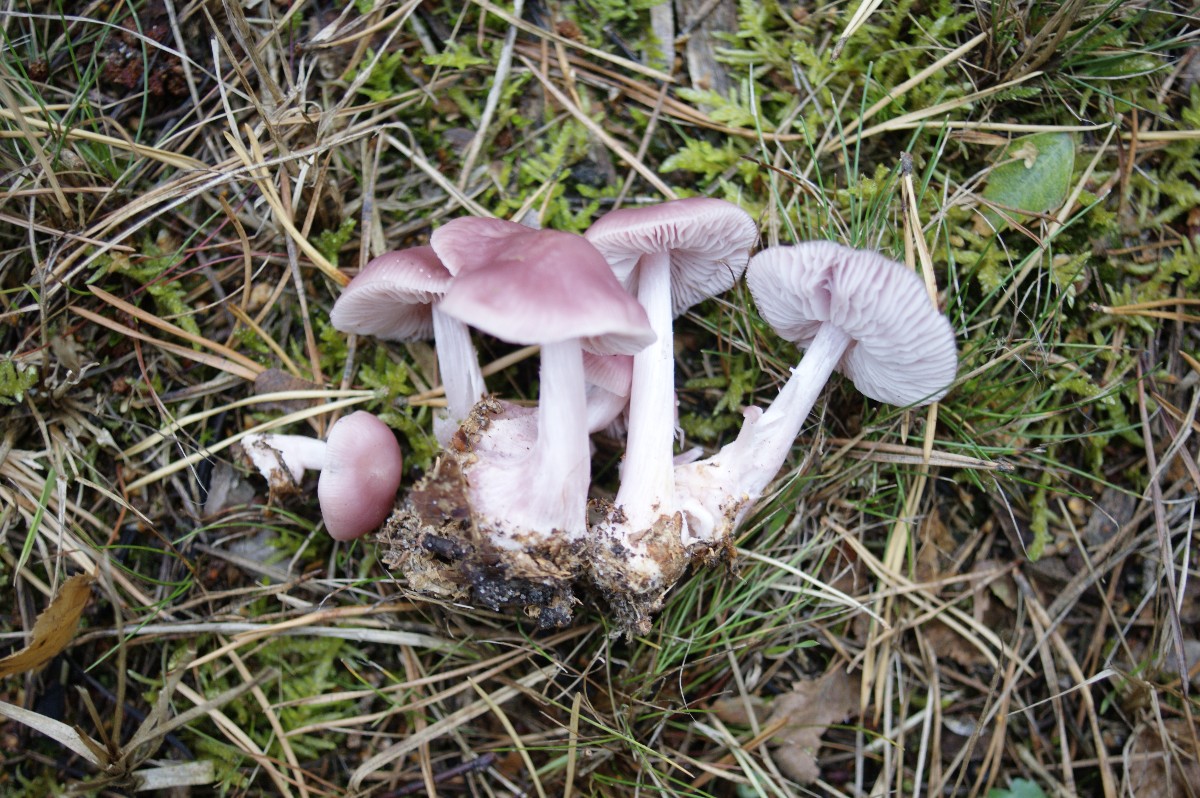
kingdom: Fungi
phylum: Basidiomycota
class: Agaricomycetes
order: Agaricales
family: Mycenaceae
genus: Mycena
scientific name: Mycena rosea
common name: rosa huesvamp
